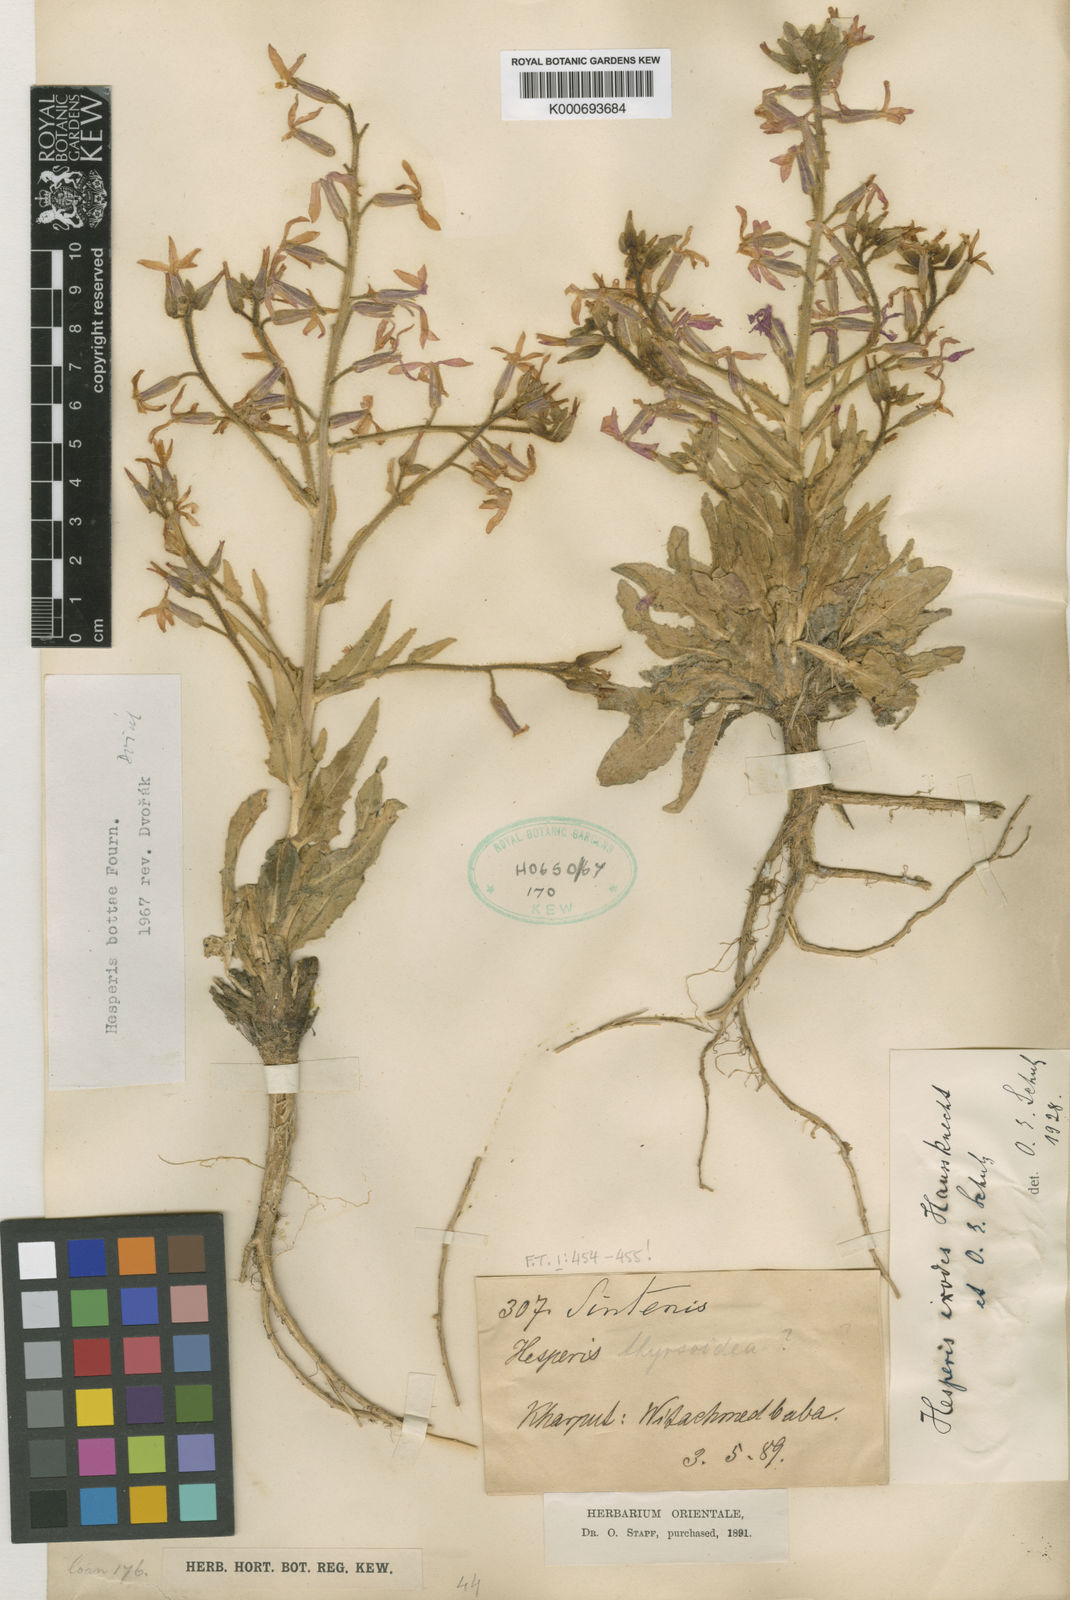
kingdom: Plantae
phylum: Tracheophyta
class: Magnoliopsida
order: Brassicales
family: Brassicaceae
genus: Hesperis
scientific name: Hesperis
